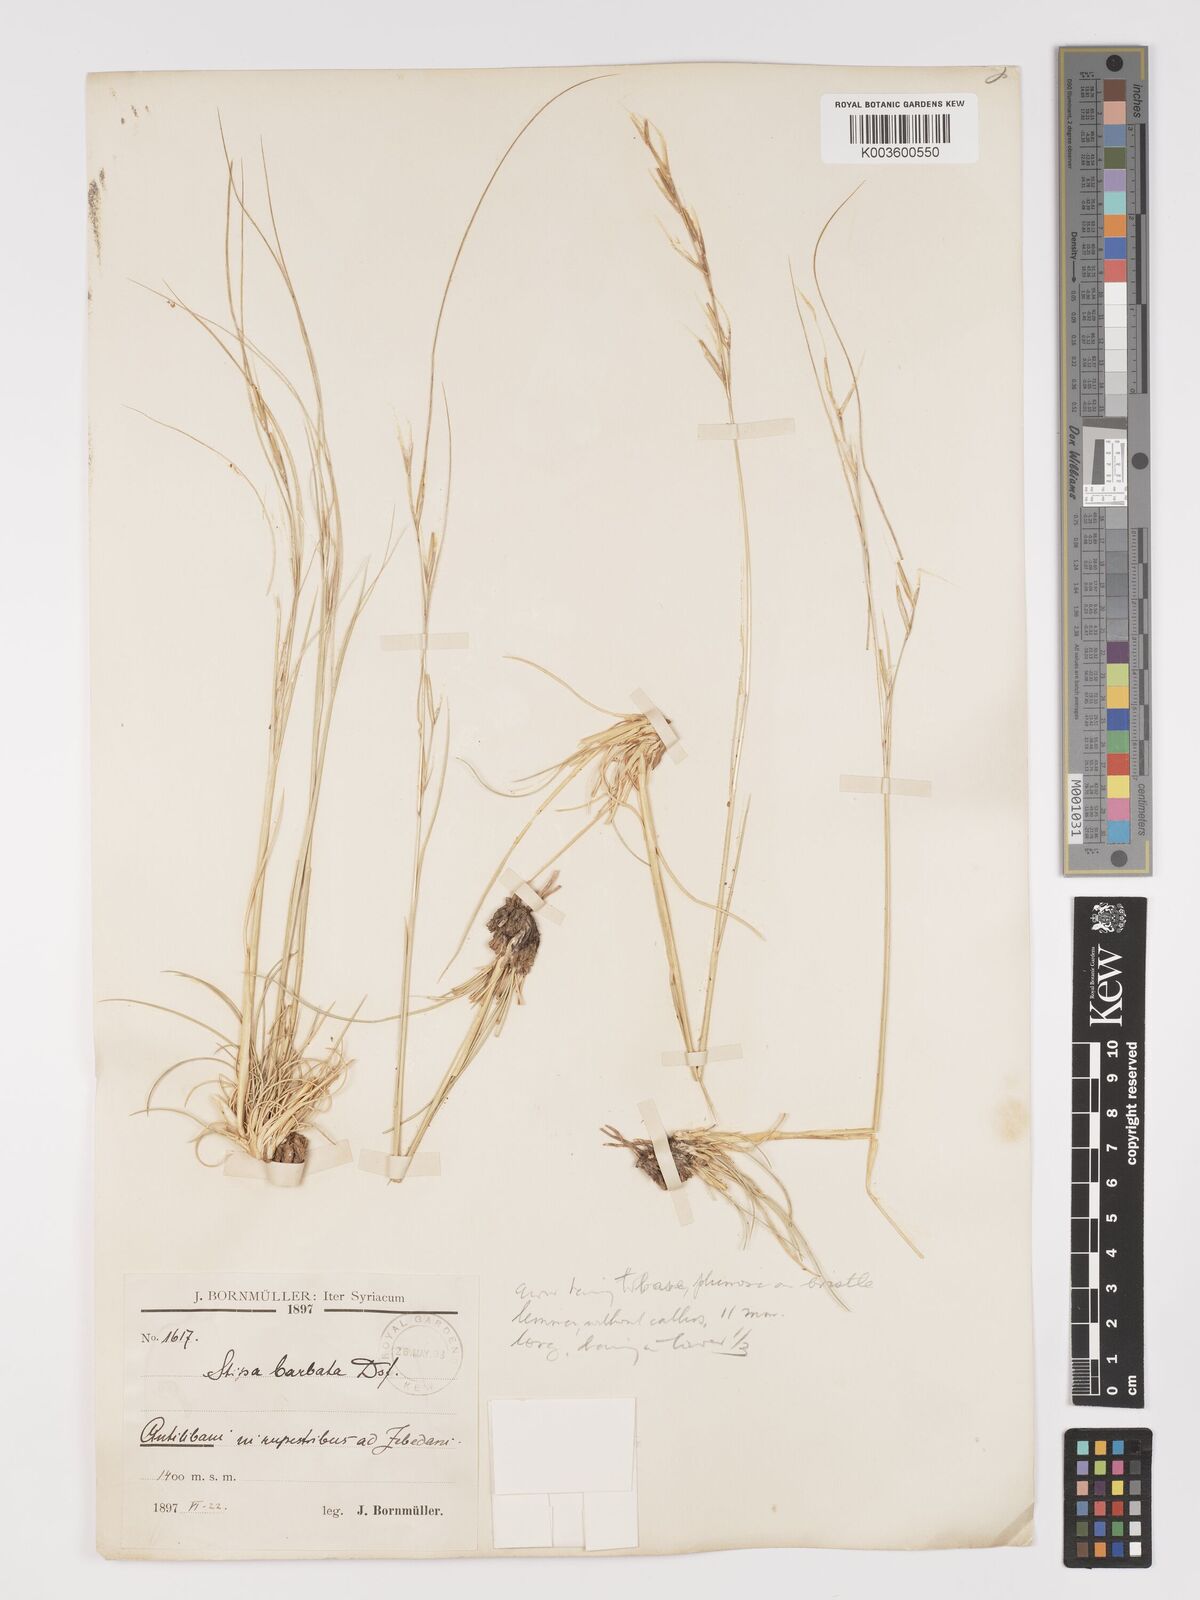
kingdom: Plantae
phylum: Tracheophyta
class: Liliopsida
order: Poales
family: Poaceae
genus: Stipa
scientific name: Stipa barbata
